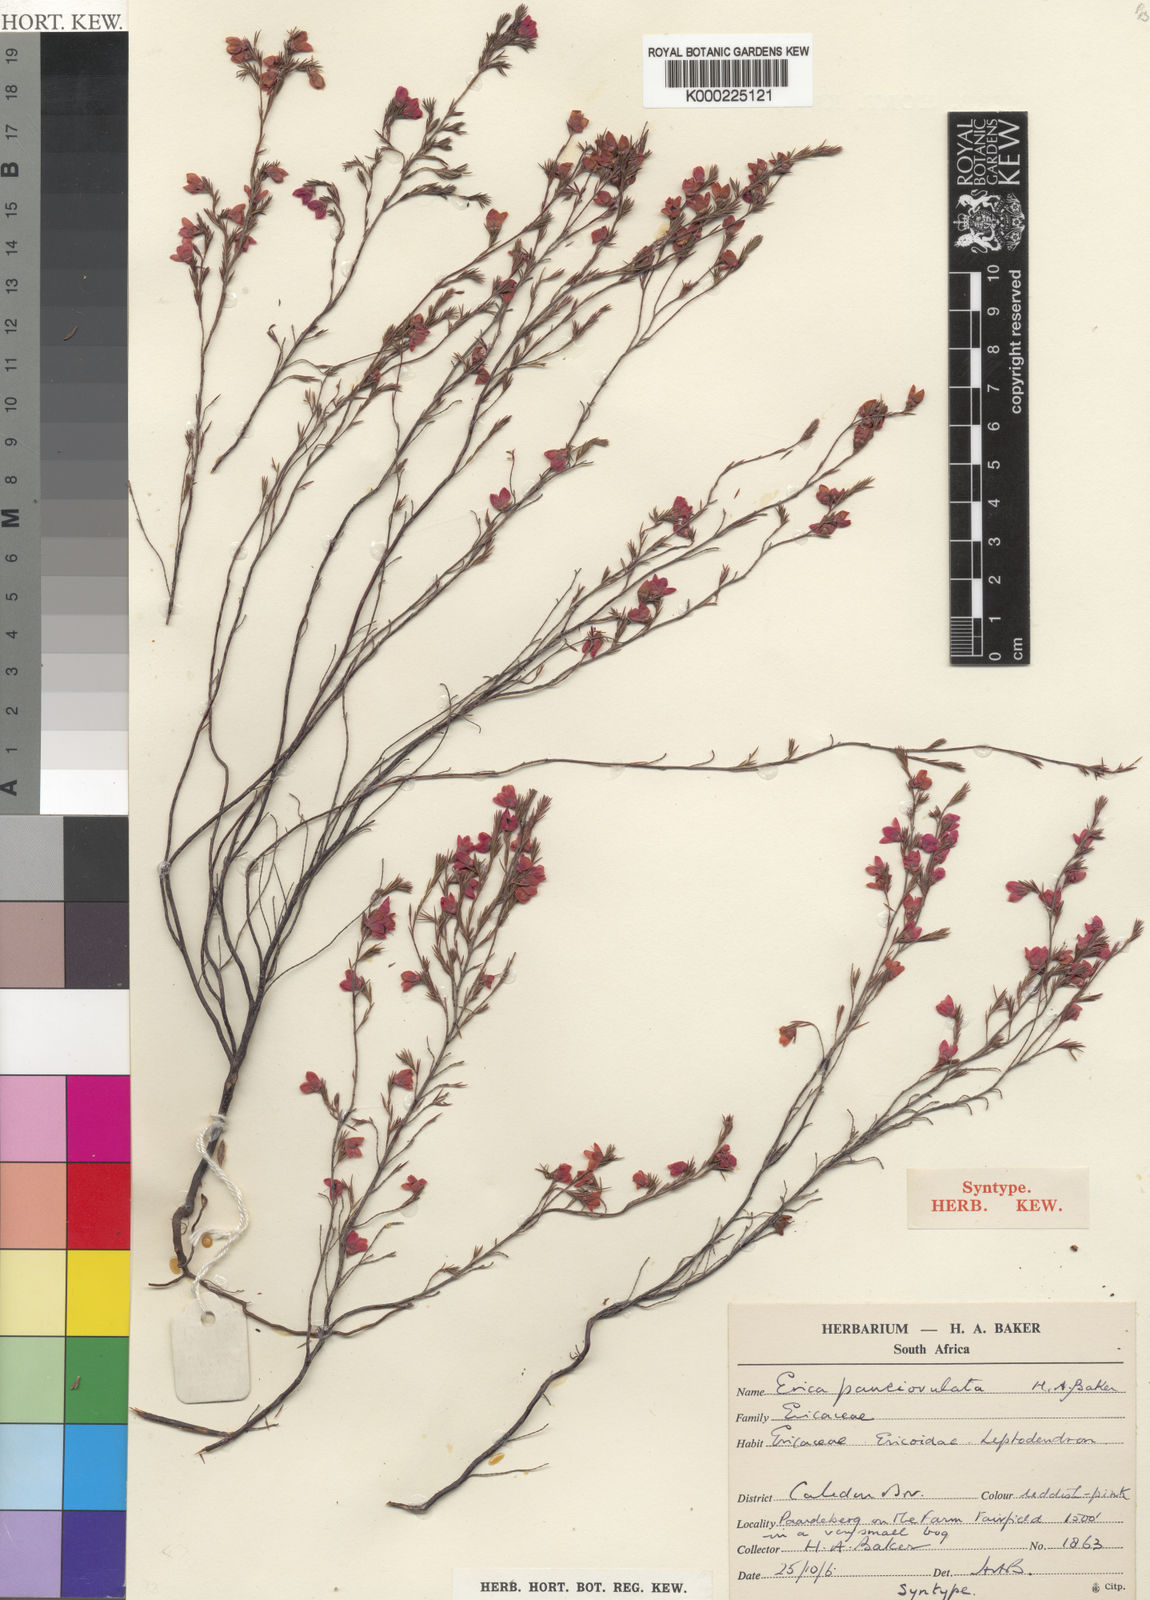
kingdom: Plantae
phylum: Tracheophyta
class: Magnoliopsida
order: Ericales
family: Ericaceae
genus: Erica
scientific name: Erica pauciovulata
